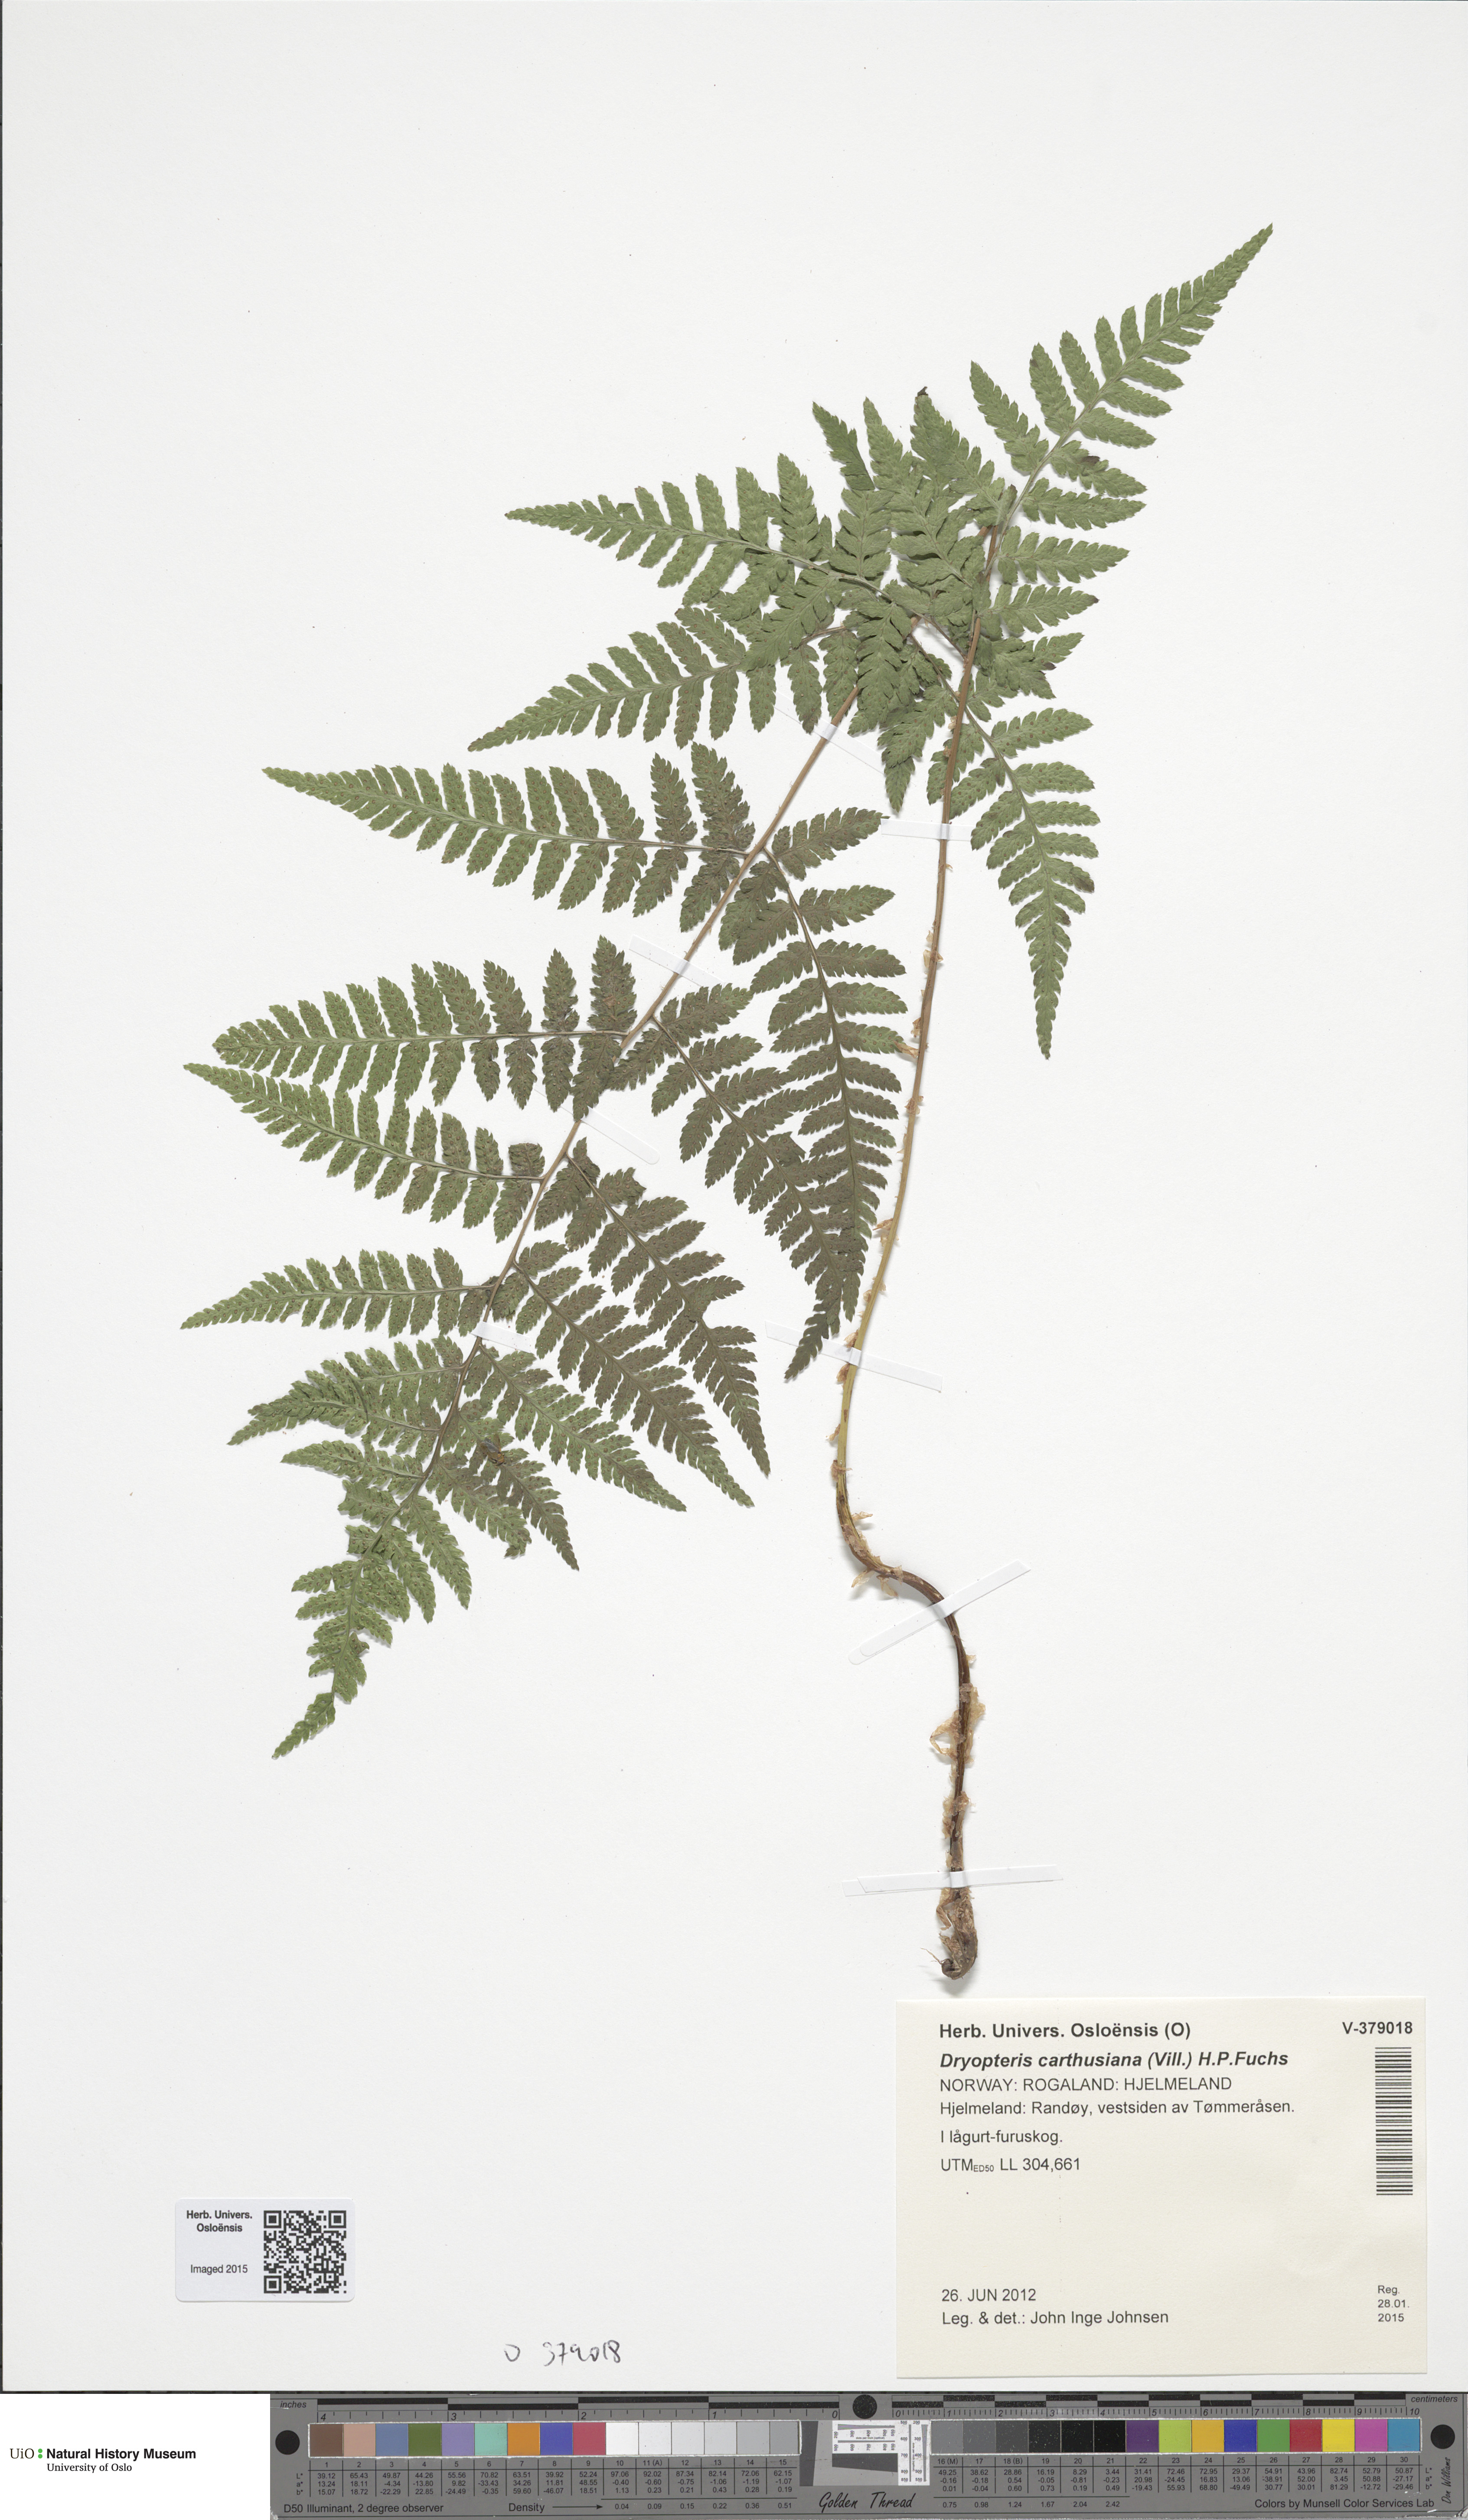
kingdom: Plantae
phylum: Tracheophyta
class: Polypodiopsida
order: Polypodiales
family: Dryopteridaceae
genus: Dryopteris
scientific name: Dryopteris carthusiana
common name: Narrow buckler-fern
